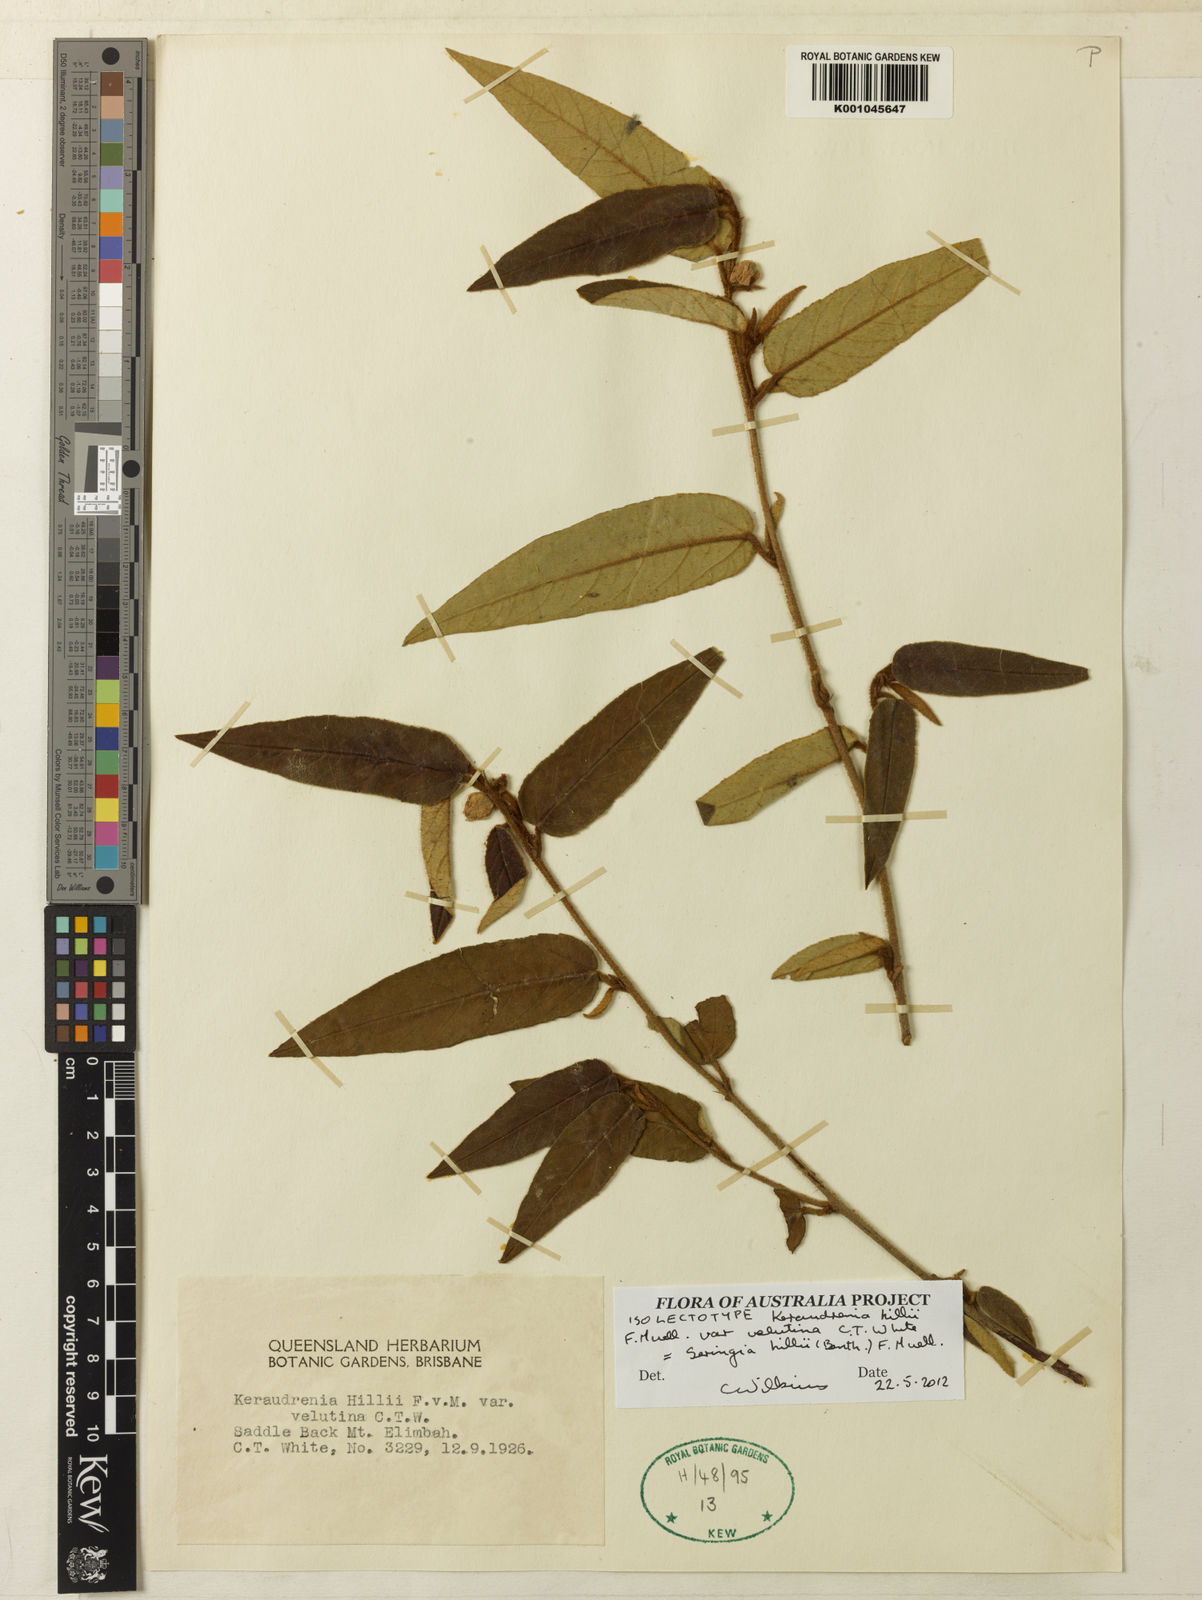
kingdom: Plantae
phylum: Tracheophyta
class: Magnoliopsida
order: Malvales
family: Malvaceae
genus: Seringia
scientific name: Seringia hillii
